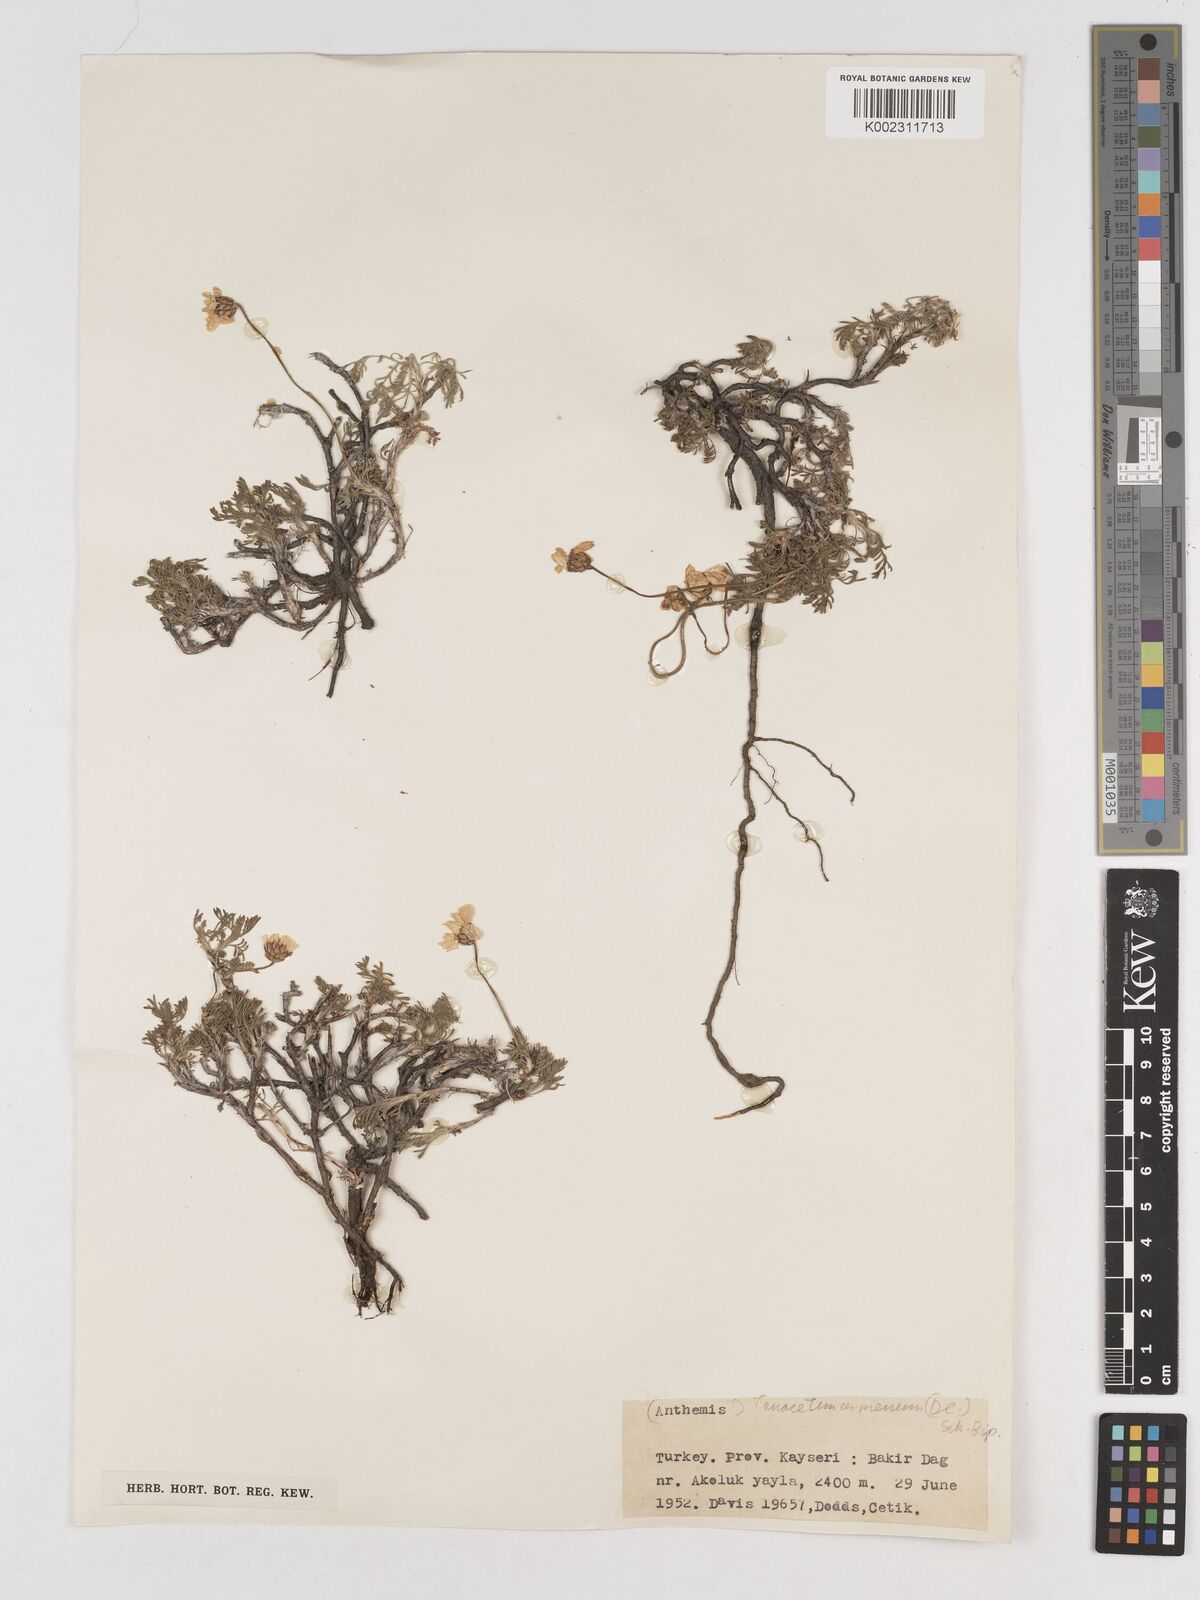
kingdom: Plantae
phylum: Tracheophyta
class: Magnoliopsida
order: Asterales
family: Asteraceae
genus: Tanacetum
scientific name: Tanacetum armenum
